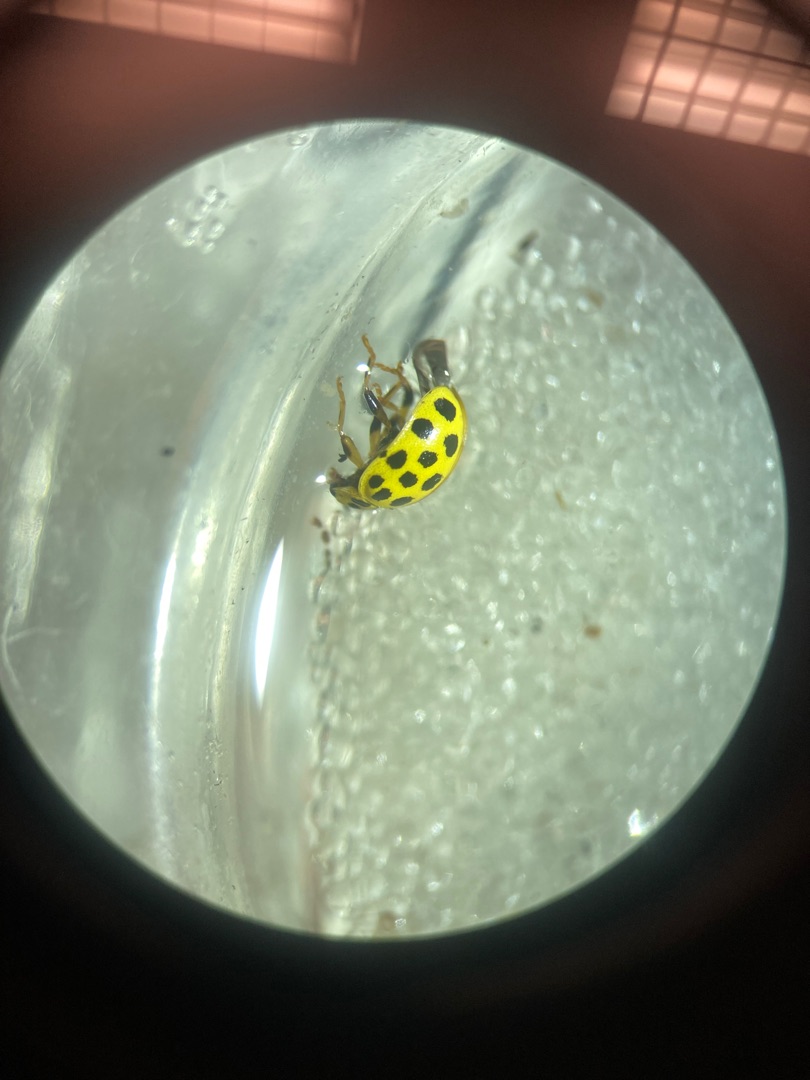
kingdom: Animalia
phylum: Arthropoda
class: Insecta
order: Coleoptera
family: Coccinellidae
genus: Psyllobora
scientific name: Psyllobora vigintiduopunctata
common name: Toogtyveplettet mariehøne
